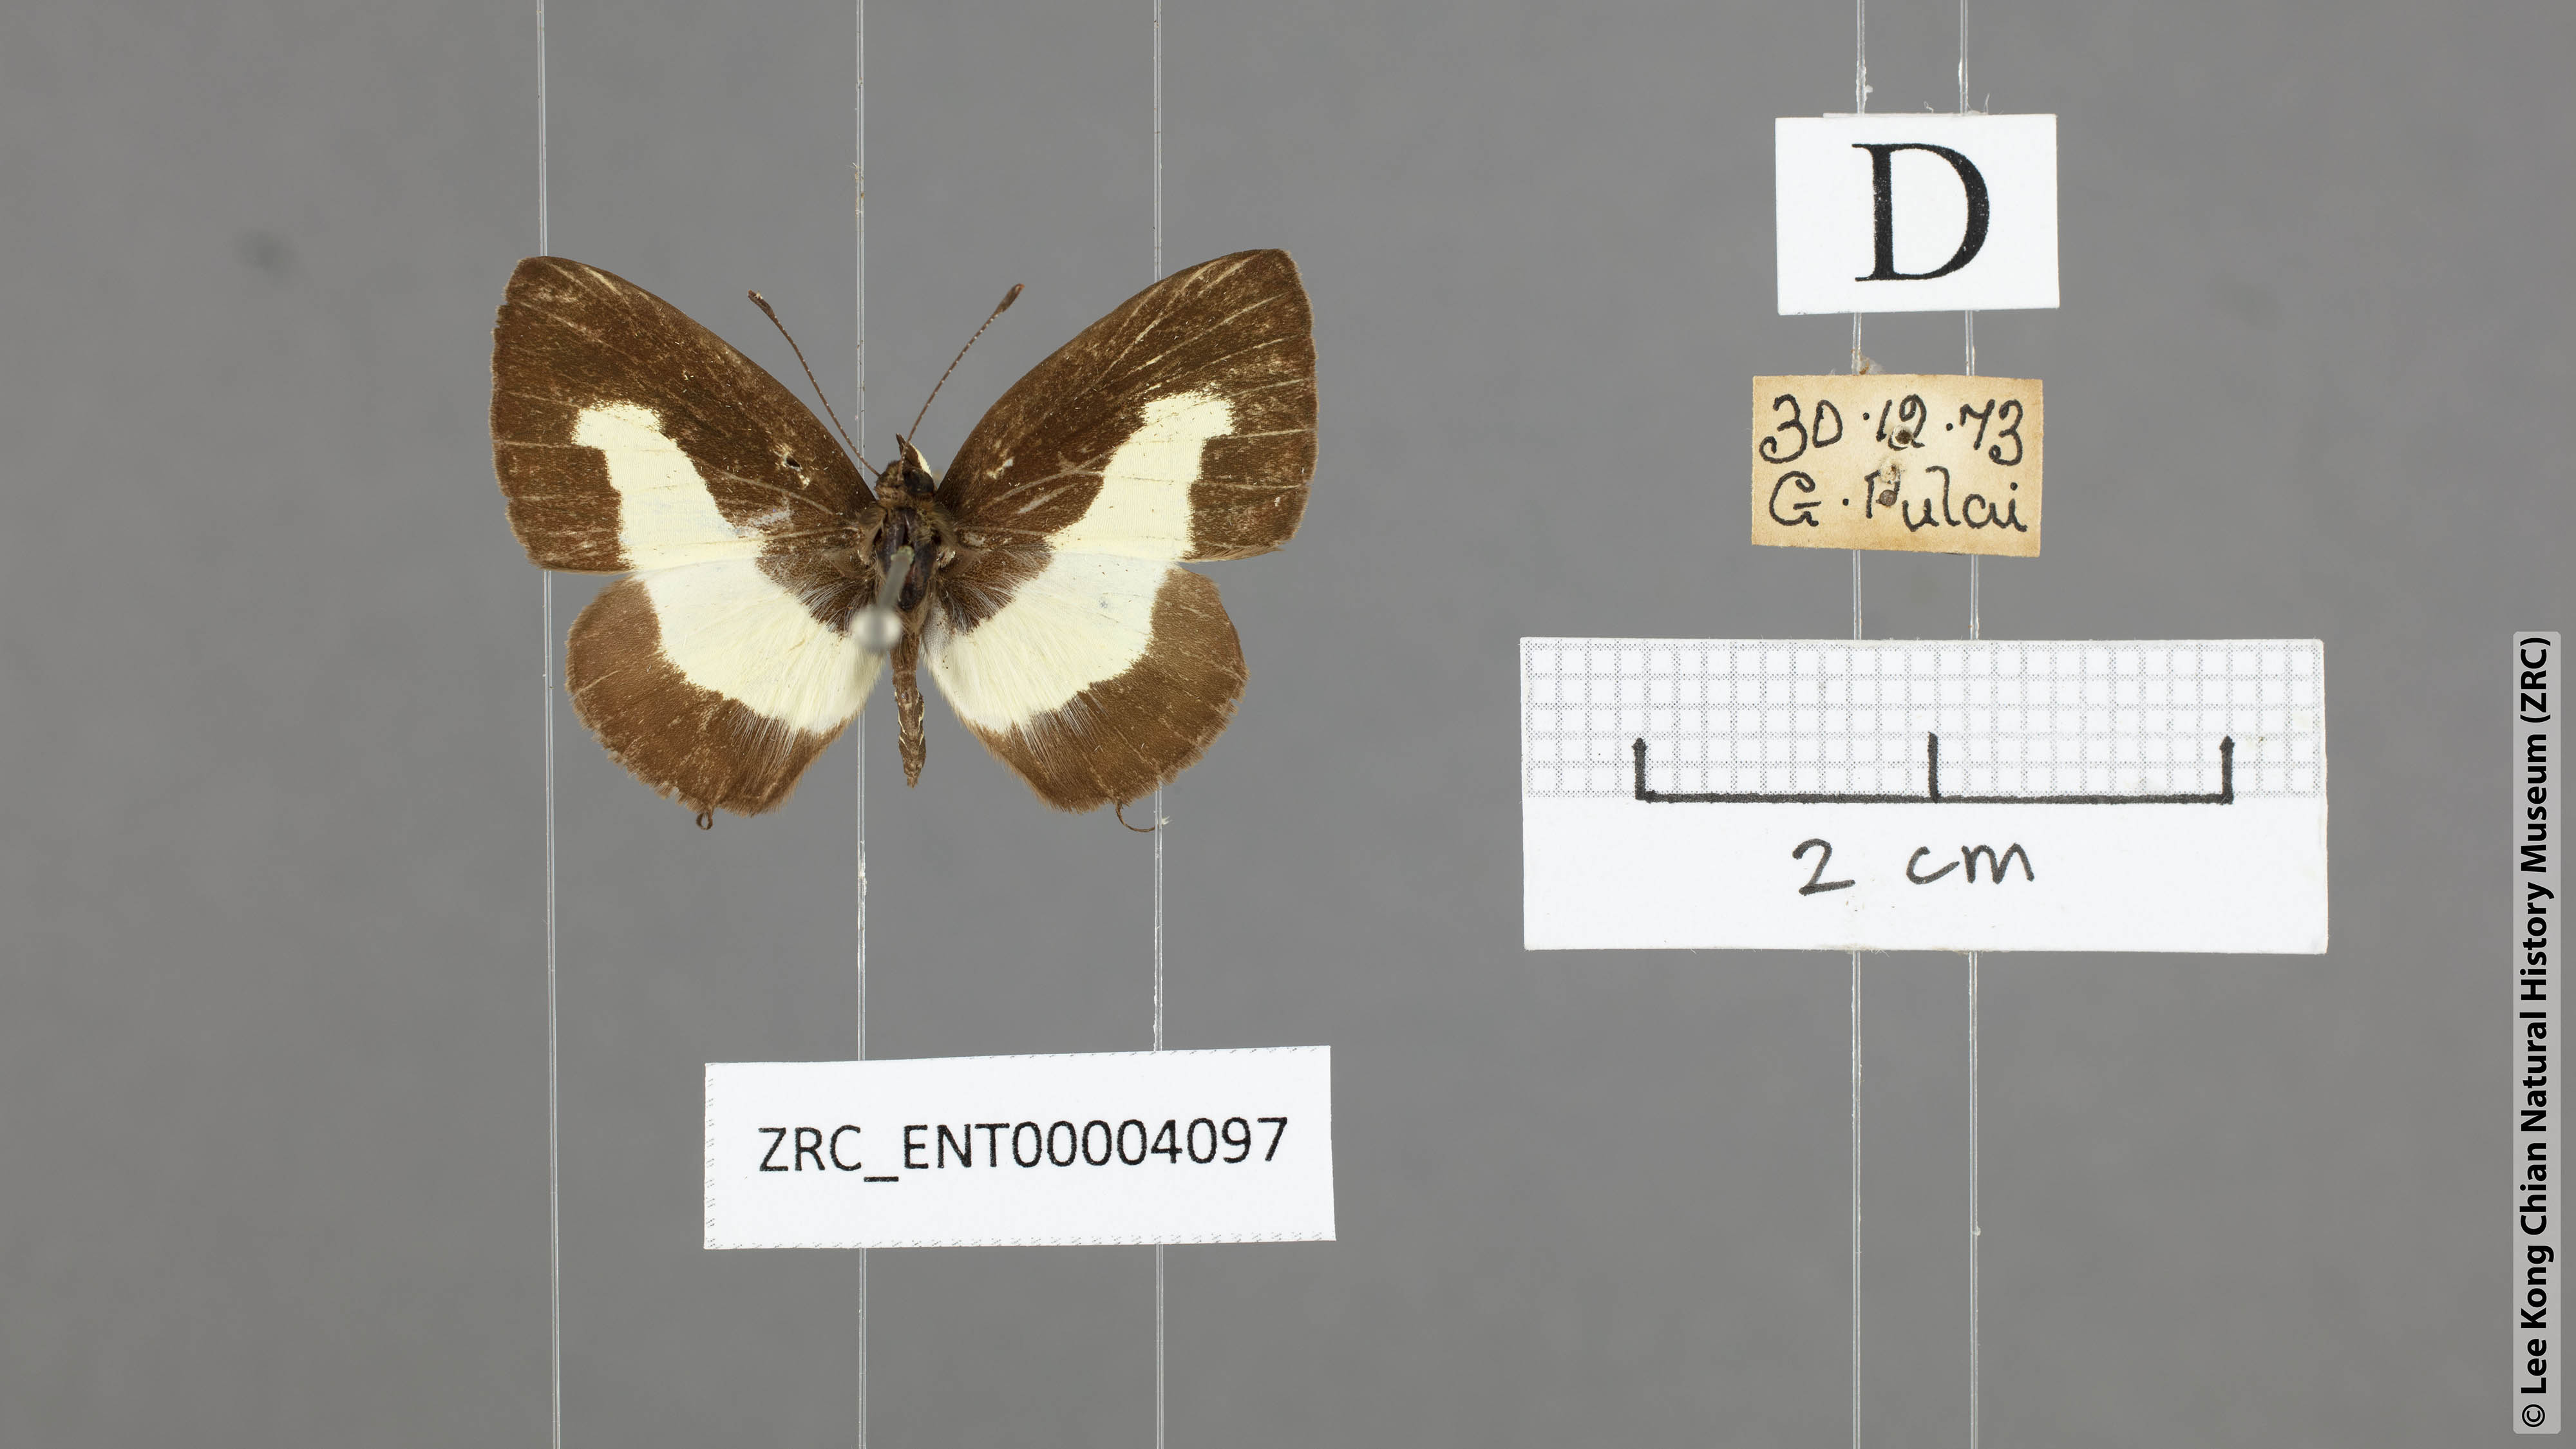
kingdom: Animalia
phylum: Arthropoda
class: Insecta
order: Lepidoptera
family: Lycaenidae
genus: Caleta
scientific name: Caleta elna
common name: Elbowed pierrot
